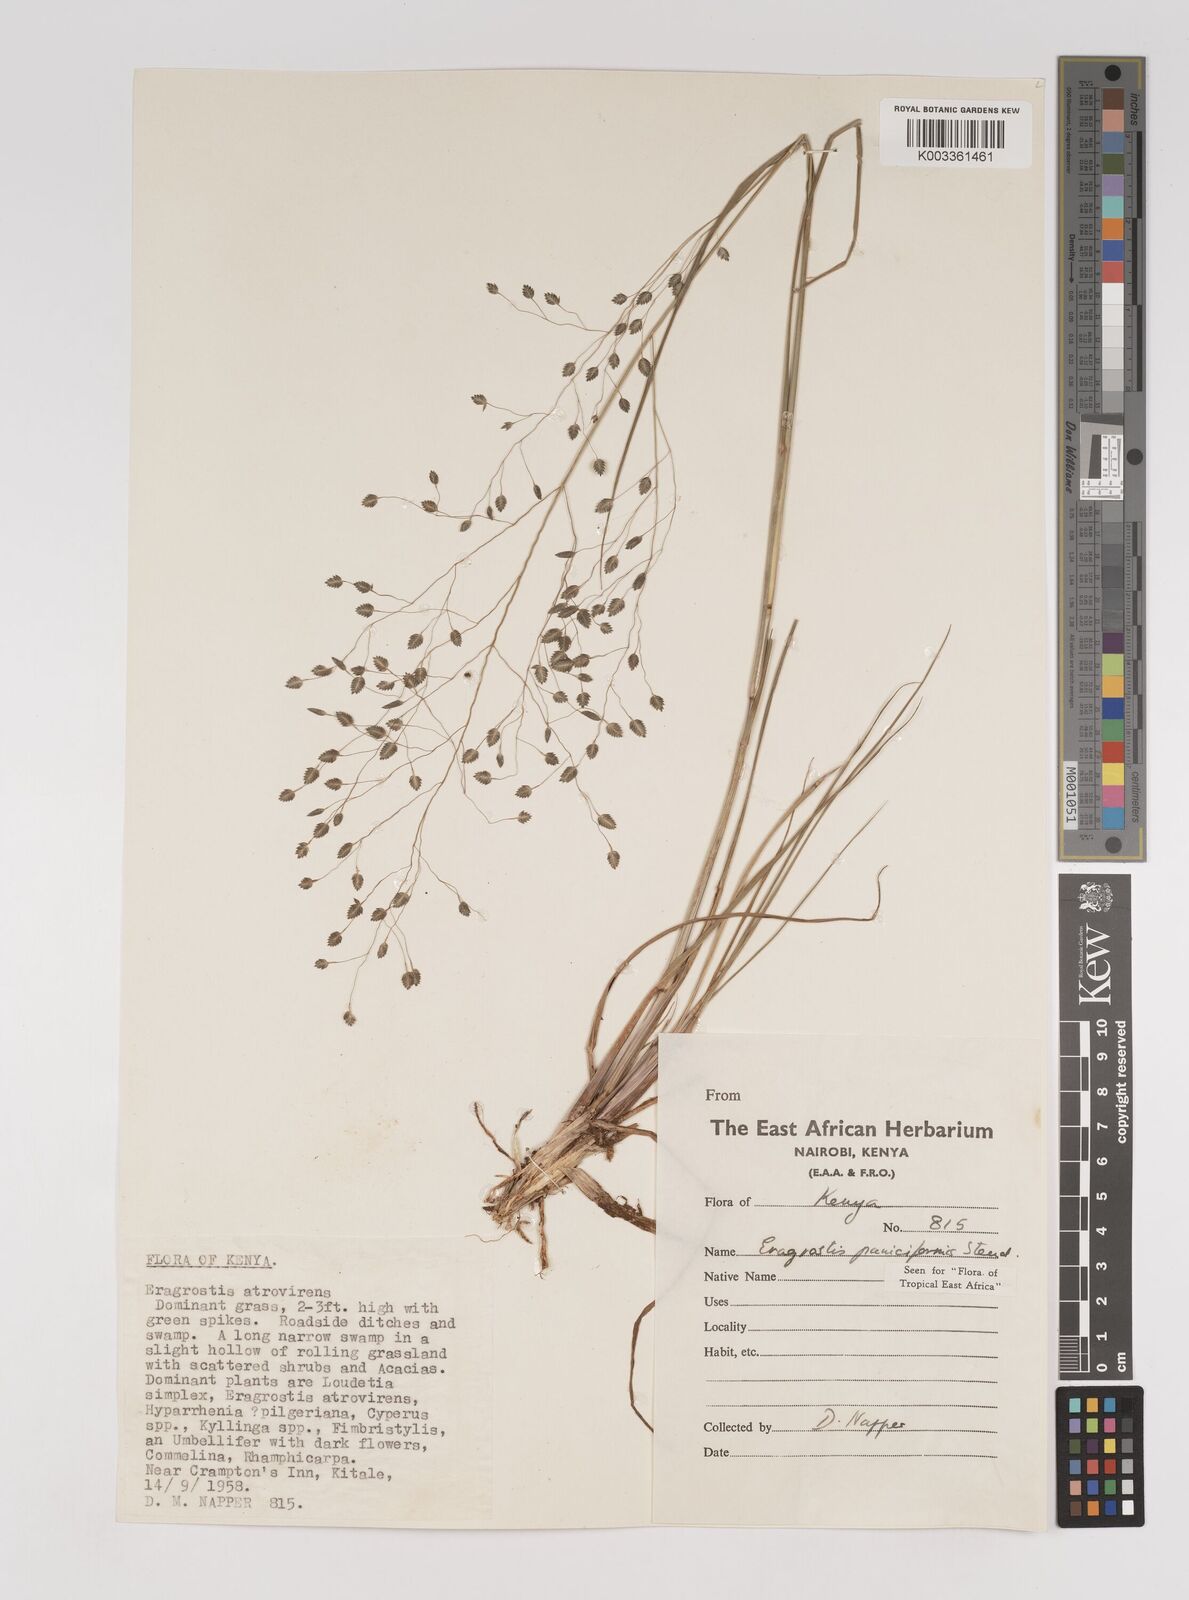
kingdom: Plantae
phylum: Tracheophyta
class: Liliopsida
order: Poales
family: Poaceae
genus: Eragrostis
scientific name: Eragrostis paniciformis
